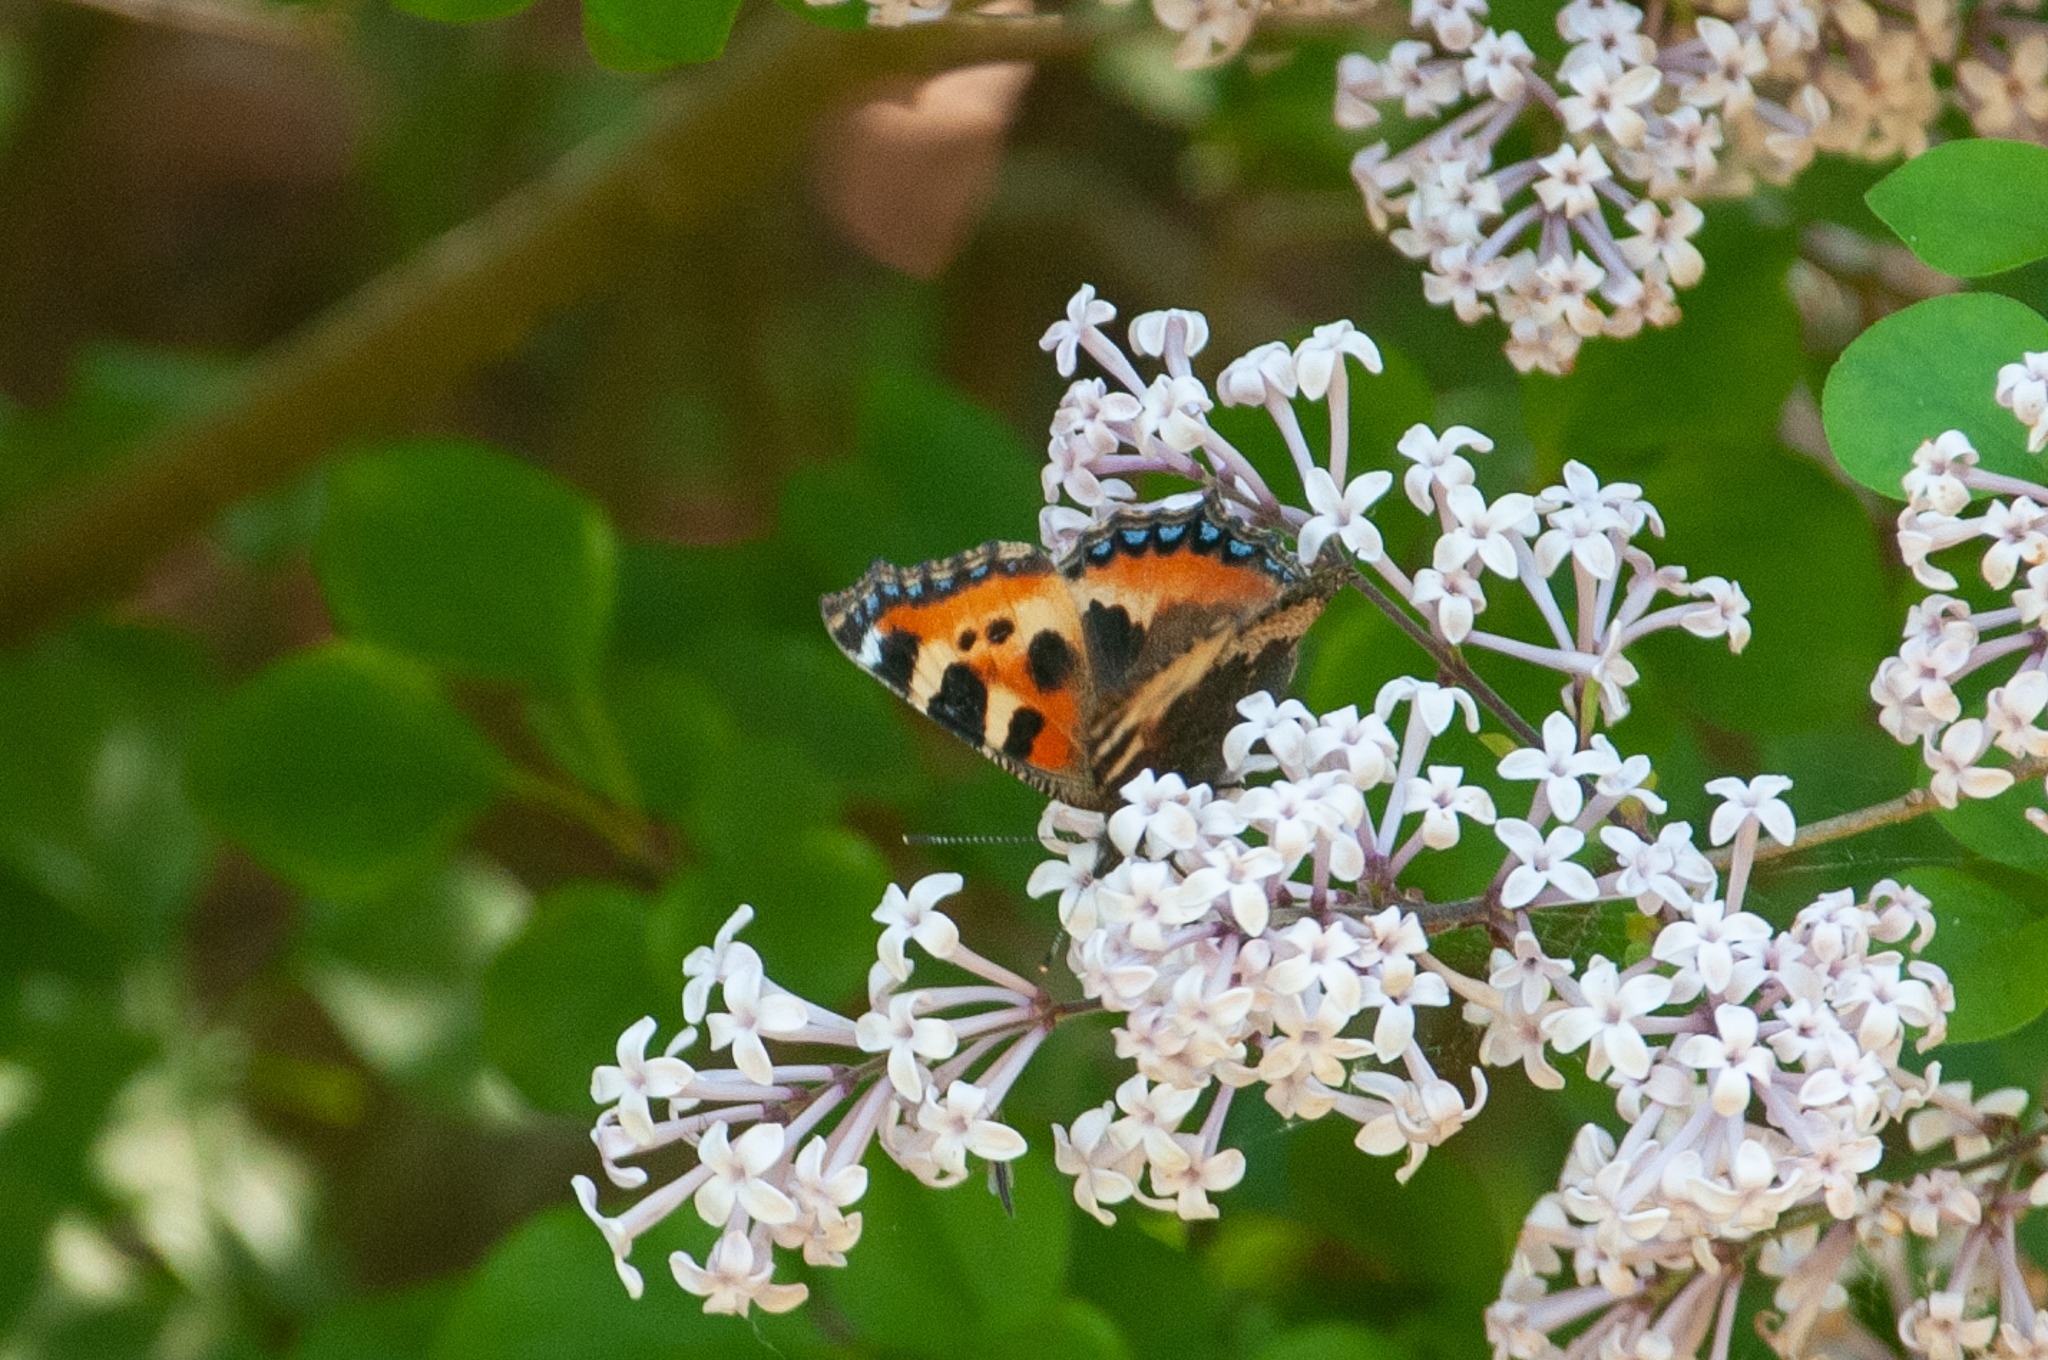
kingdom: Animalia
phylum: Arthropoda
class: Insecta
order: Lepidoptera
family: Nymphalidae
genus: Aglais
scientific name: Aglais urticae
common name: Nældens takvinge
